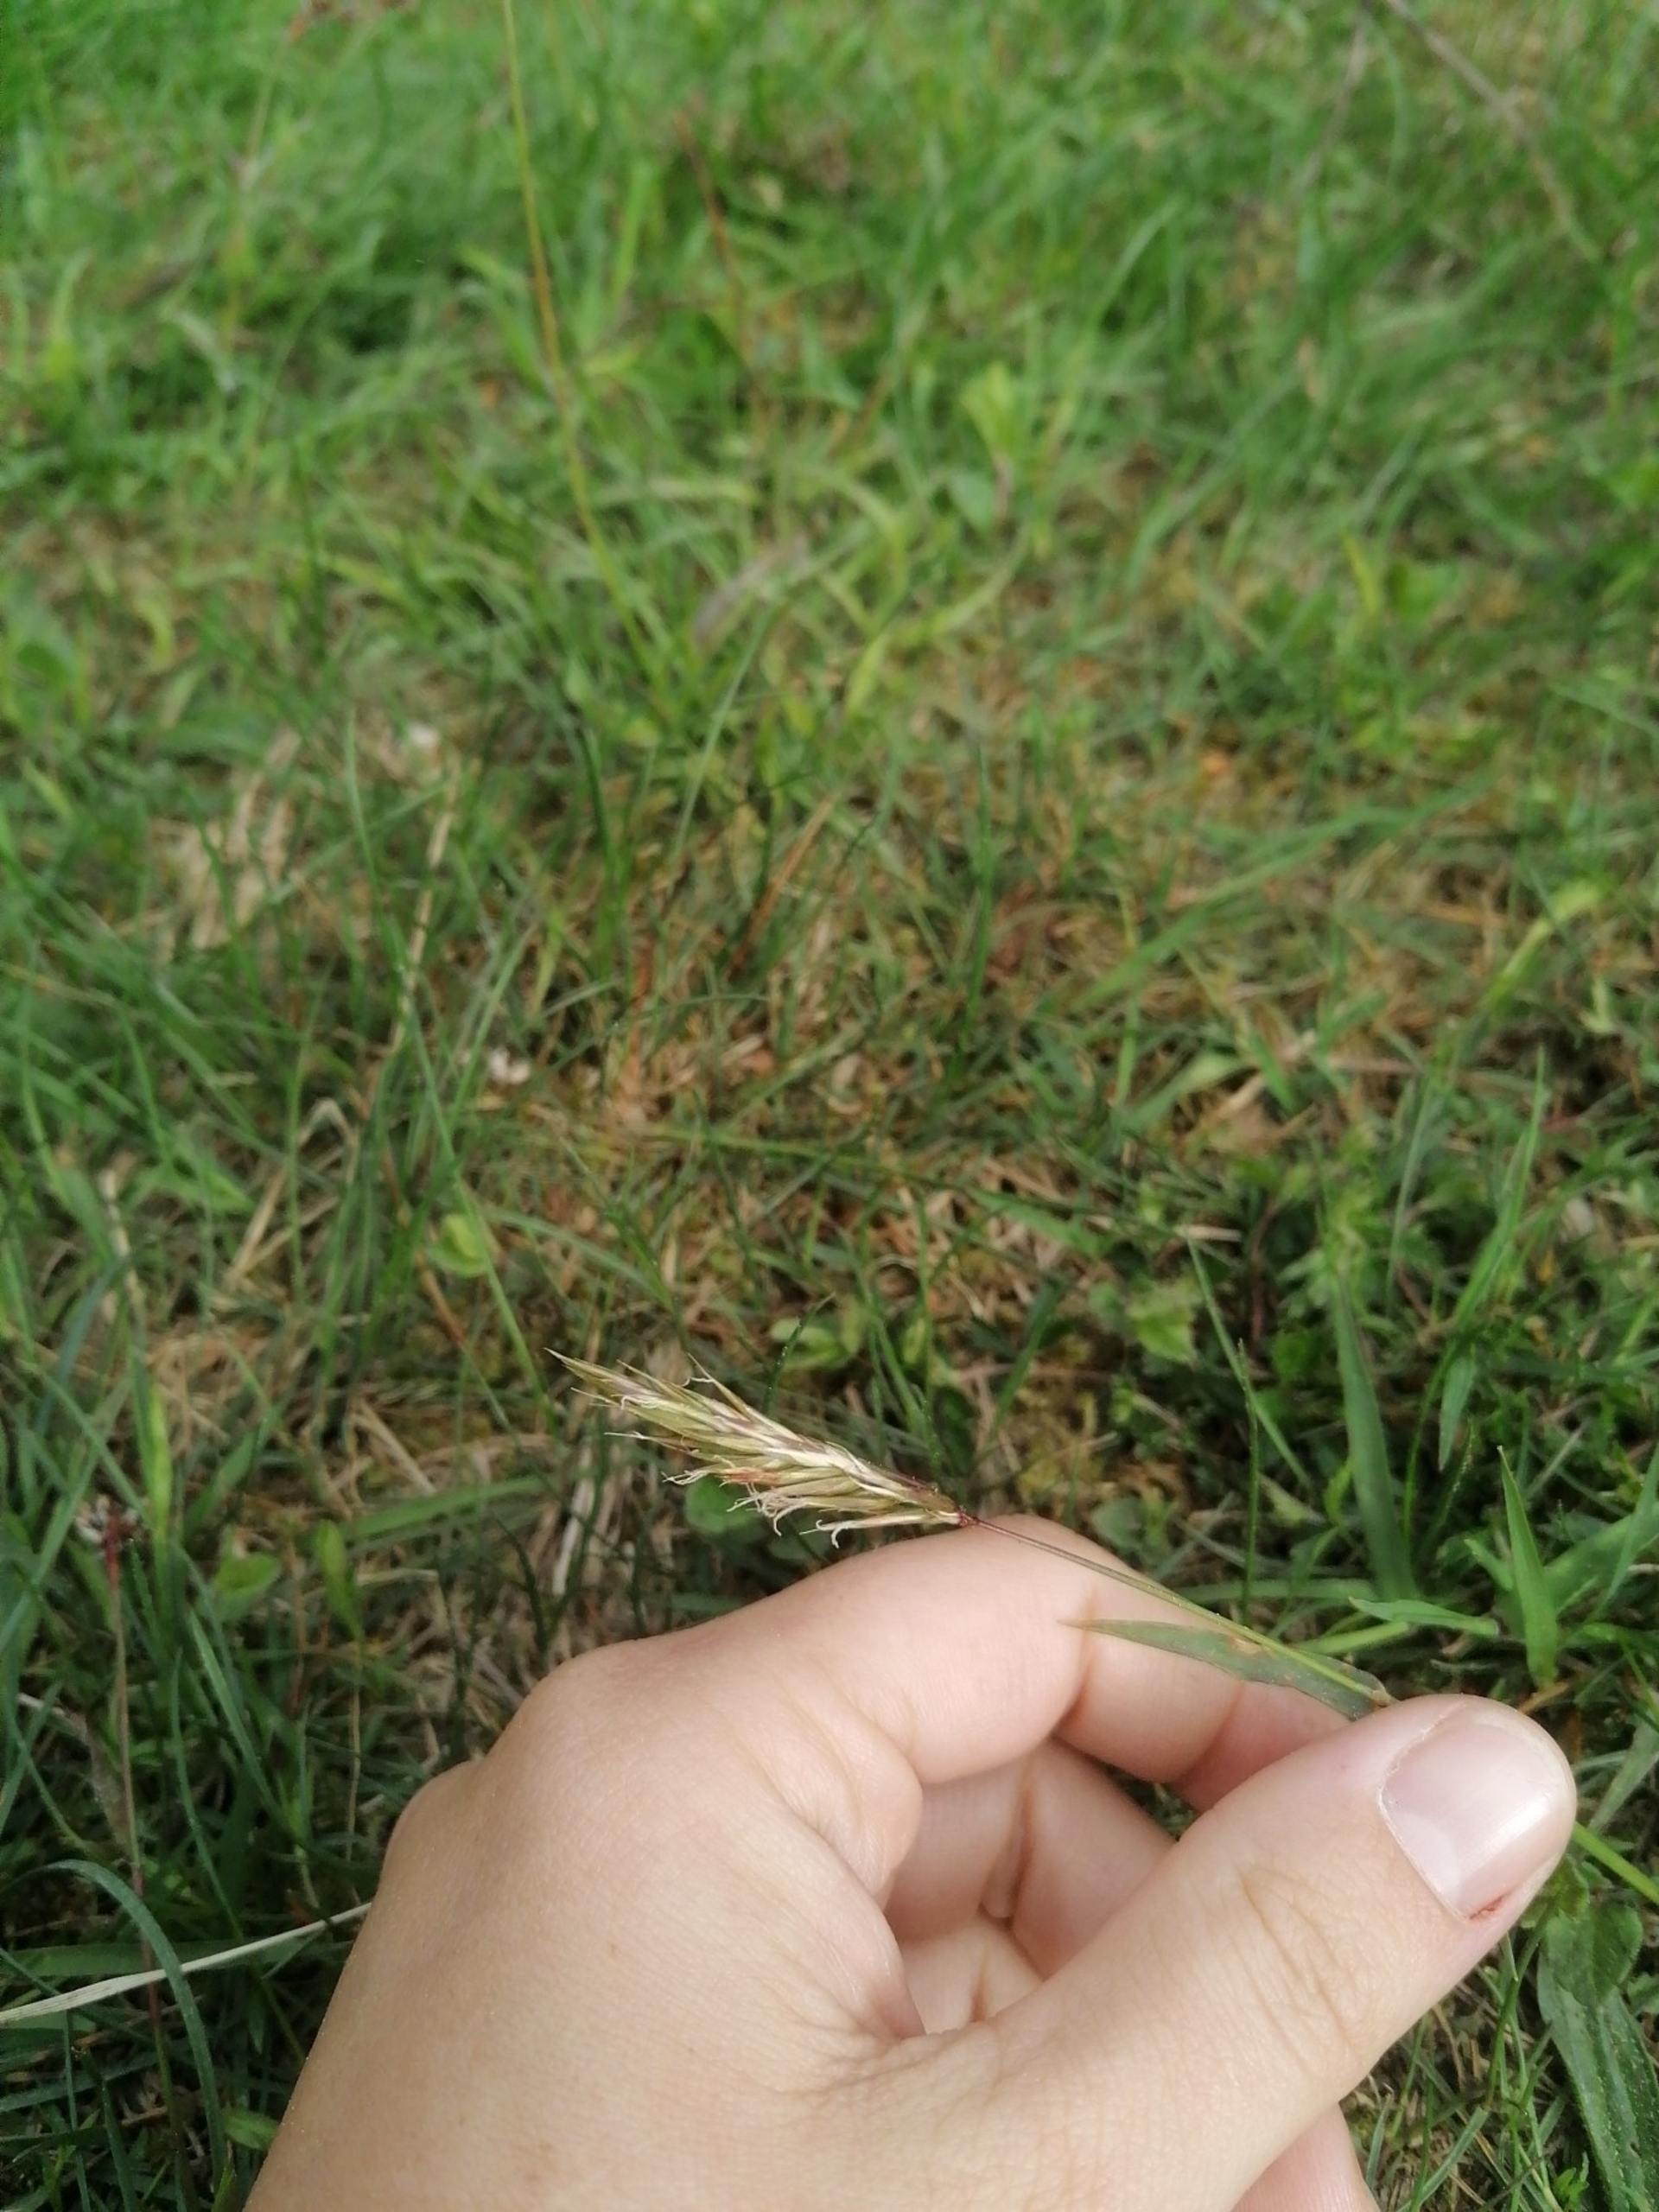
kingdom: Plantae
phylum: Tracheophyta
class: Liliopsida
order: Poales
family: Poaceae
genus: Anthoxanthum
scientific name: Anthoxanthum odoratum
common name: Vellugtende gulaks
